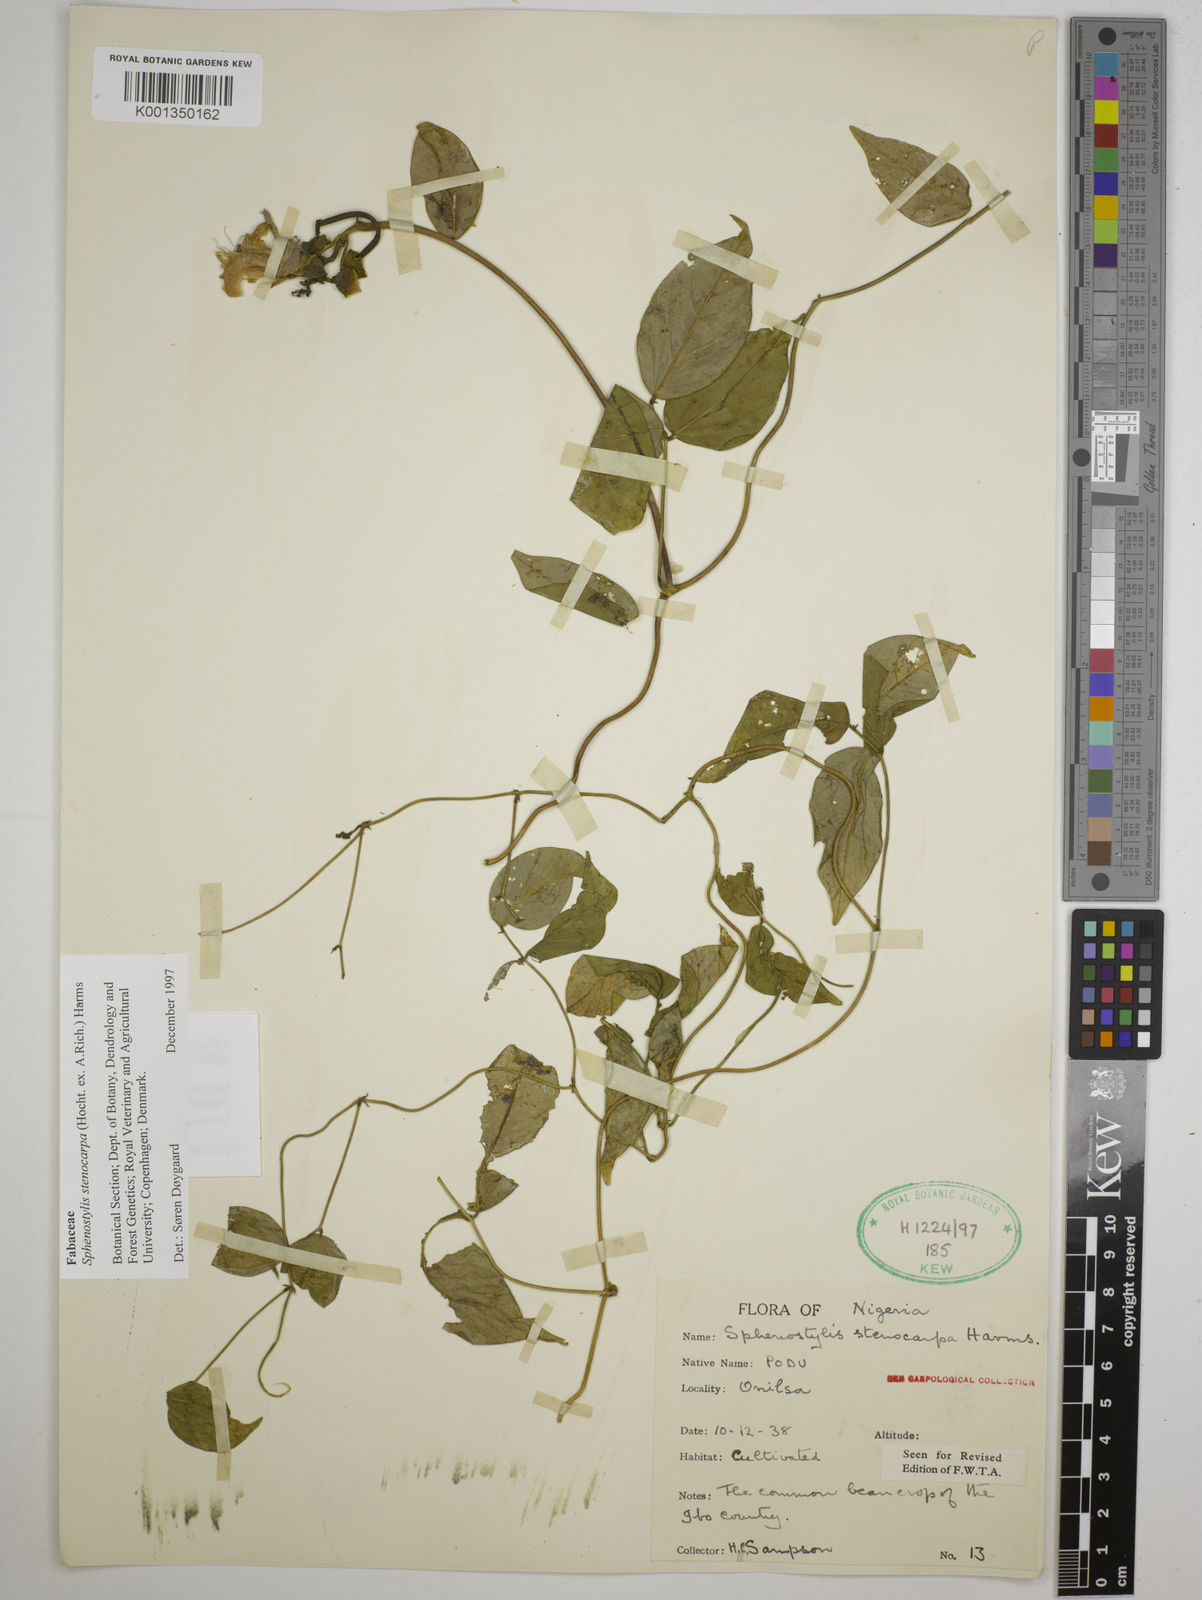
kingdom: Plantae
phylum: Tracheophyta
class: Magnoliopsida
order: Fabales
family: Fabaceae
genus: Sphenostylis
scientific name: Sphenostylis stenocarpa
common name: Yam-pea
